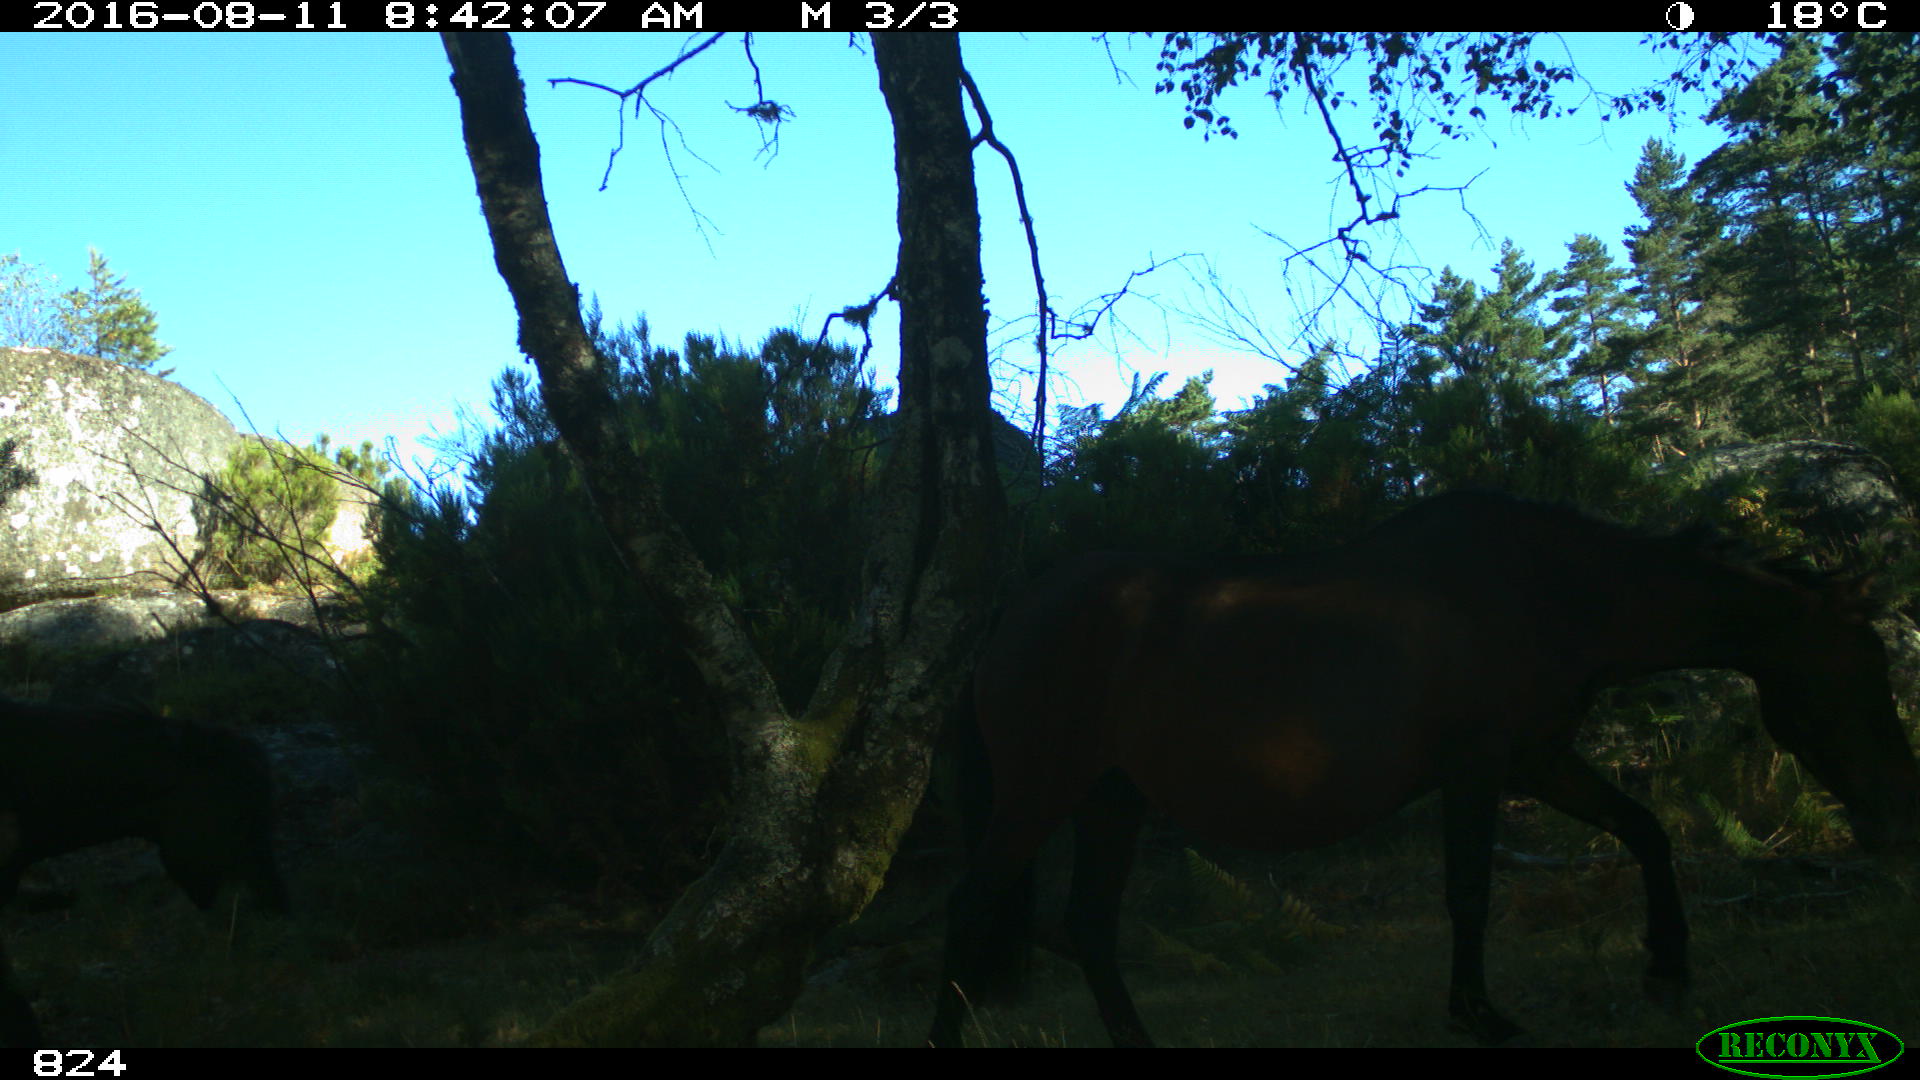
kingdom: Animalia
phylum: Chordata
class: Mammalia
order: Perissodactyla
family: Equidae
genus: Equus
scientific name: Equus caballus
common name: Horse
